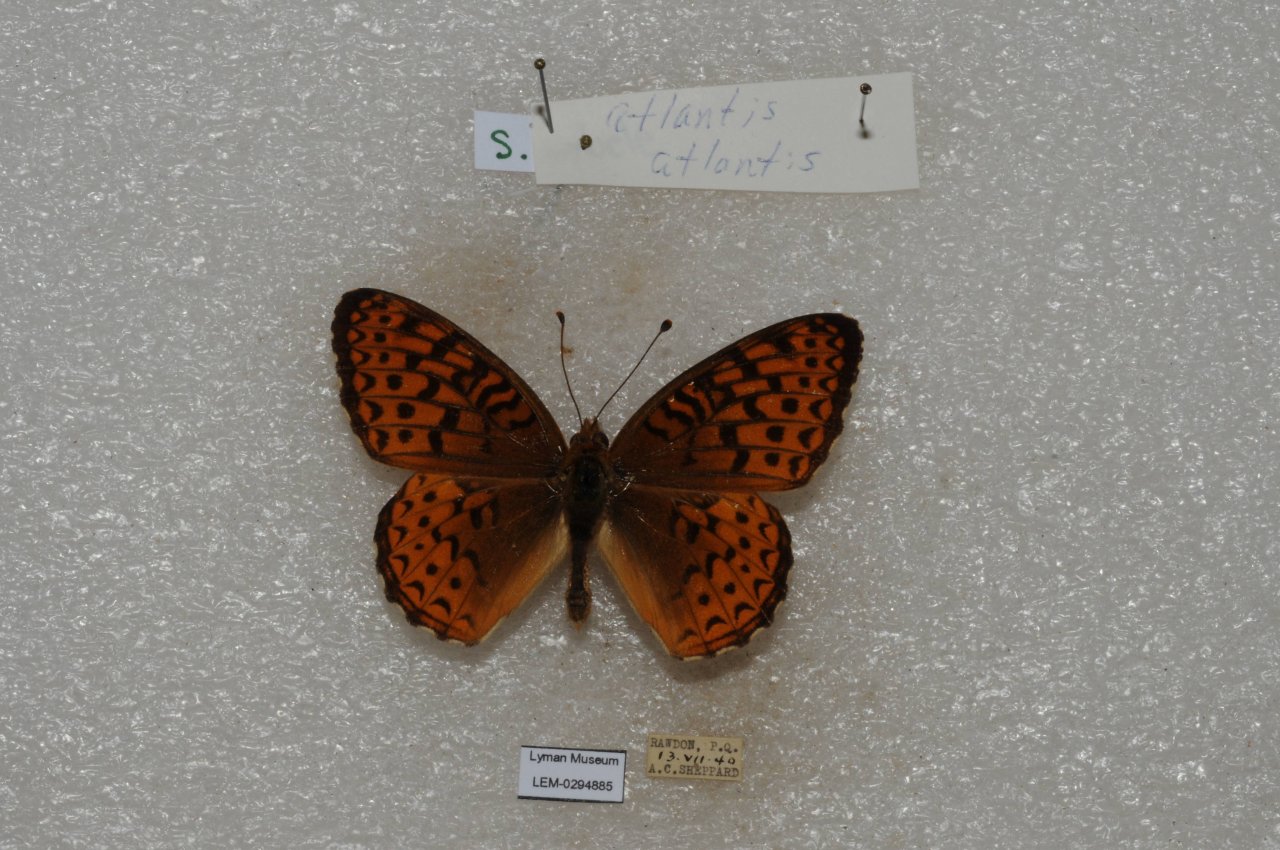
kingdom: Animalia
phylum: Arthropoda
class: Insecta
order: Lepidoptera
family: Nymphalidae
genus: Speyeria
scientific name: Speyeria atlantis
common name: Atlantis Fritillary
